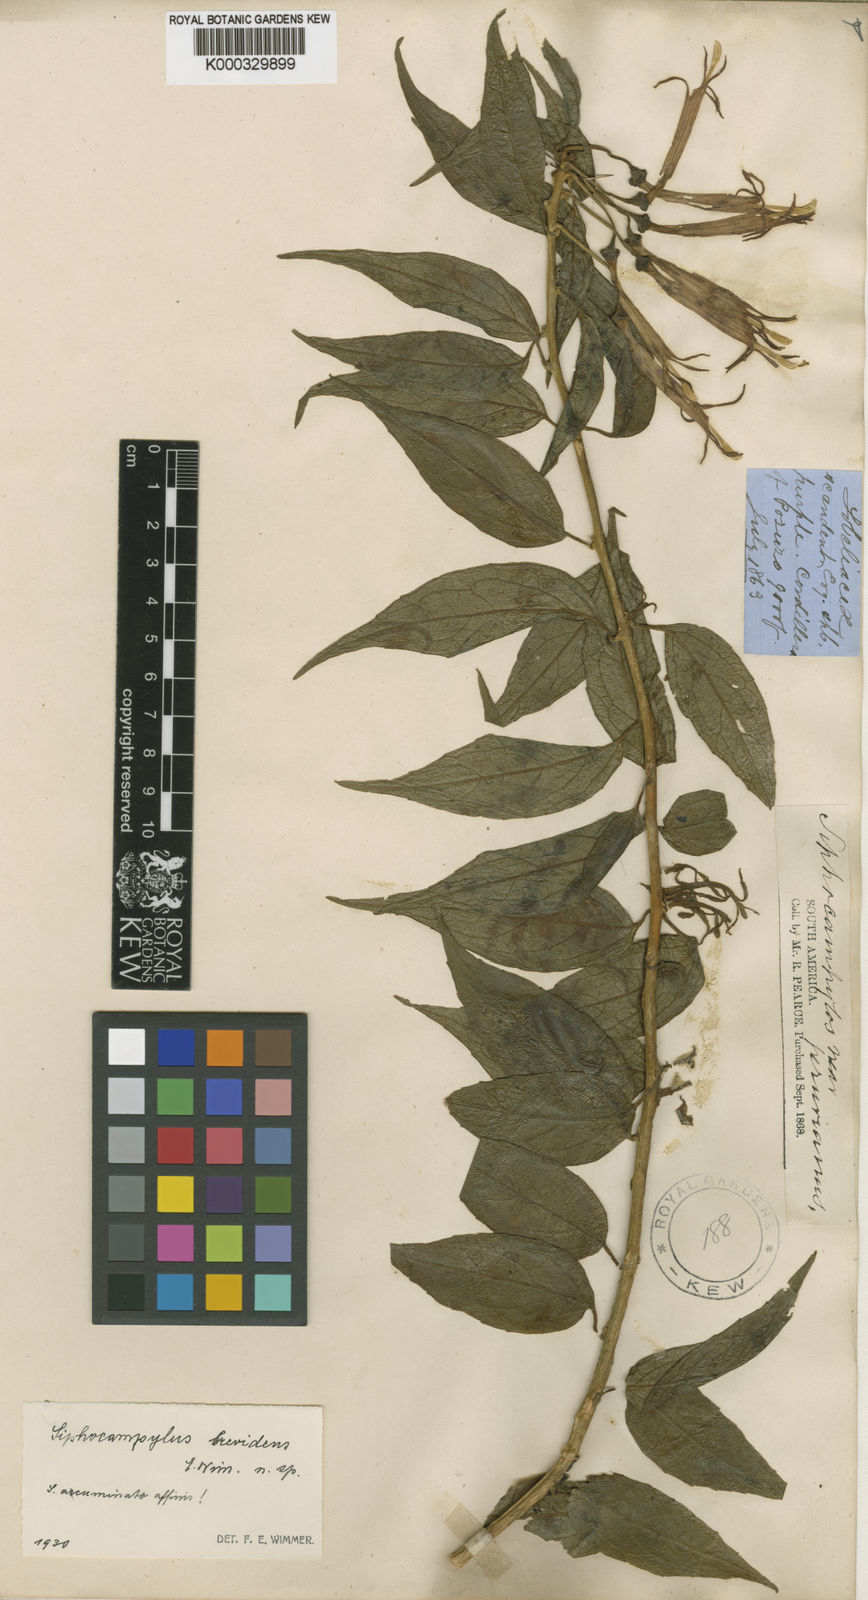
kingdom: Plantae
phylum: Tracheophyta
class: Magnoliopsida
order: Asterales
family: Campanulaceae
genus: Siphocampylus
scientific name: Siphocampylus parvilobus
